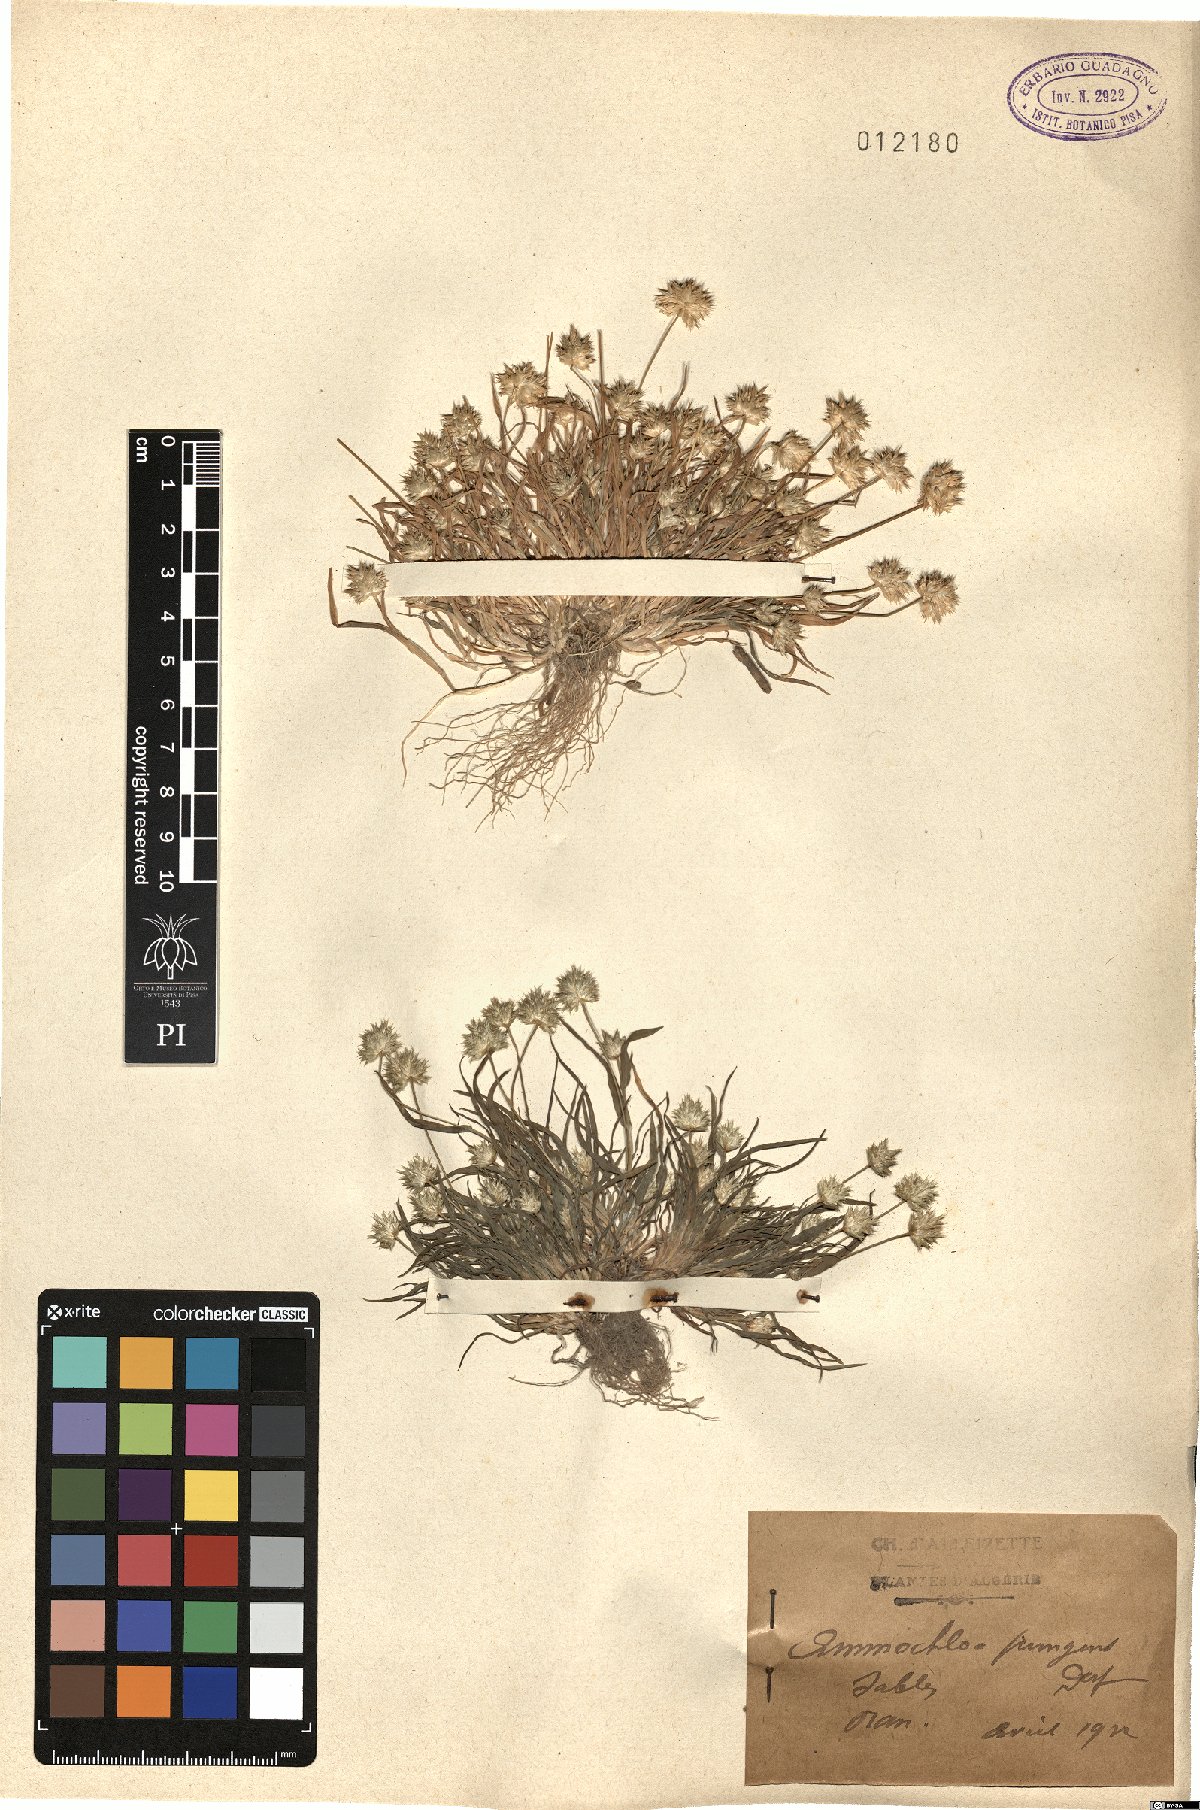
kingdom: Plantae
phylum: Tracheophyta
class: Liliopsida
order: Poales
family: Poaceae
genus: Ammochloa
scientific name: Ammochloa pungens
